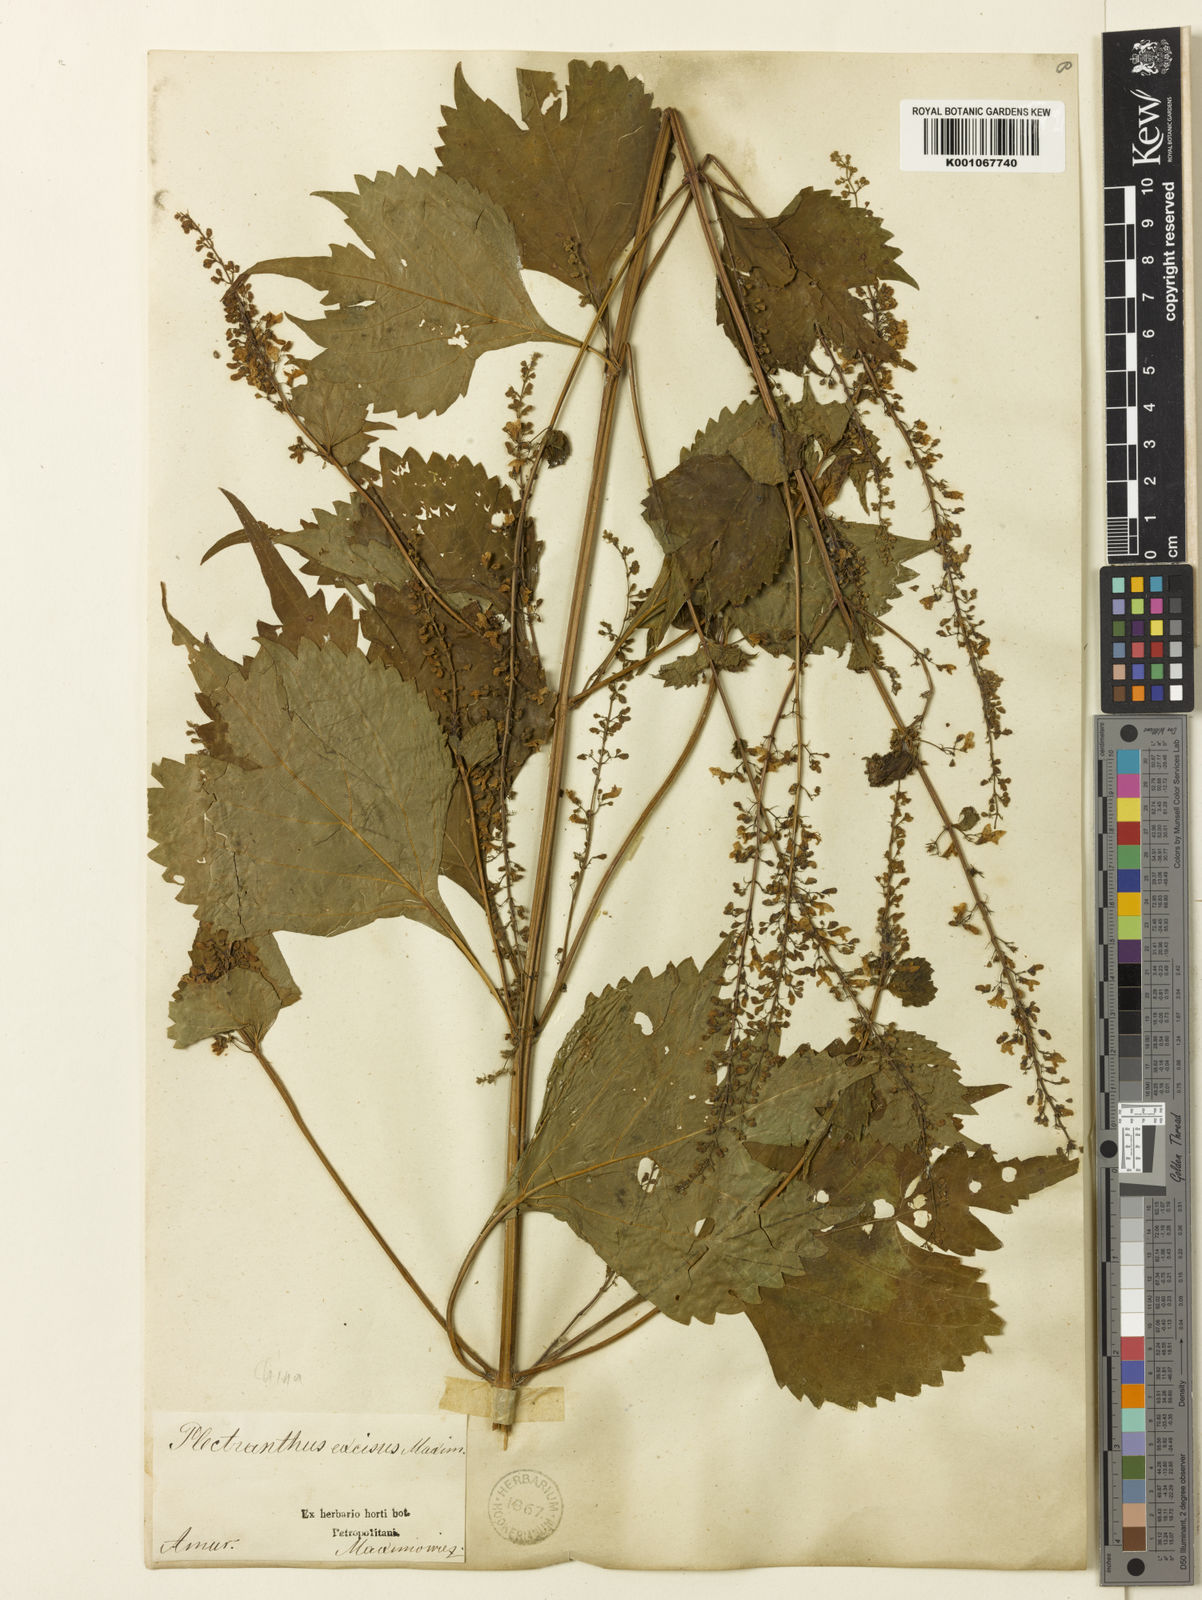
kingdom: Plantae
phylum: Tracheophyta
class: Magnoliopsida
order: Lamiales
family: Lamiaceae
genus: Isodon
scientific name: Isodon
